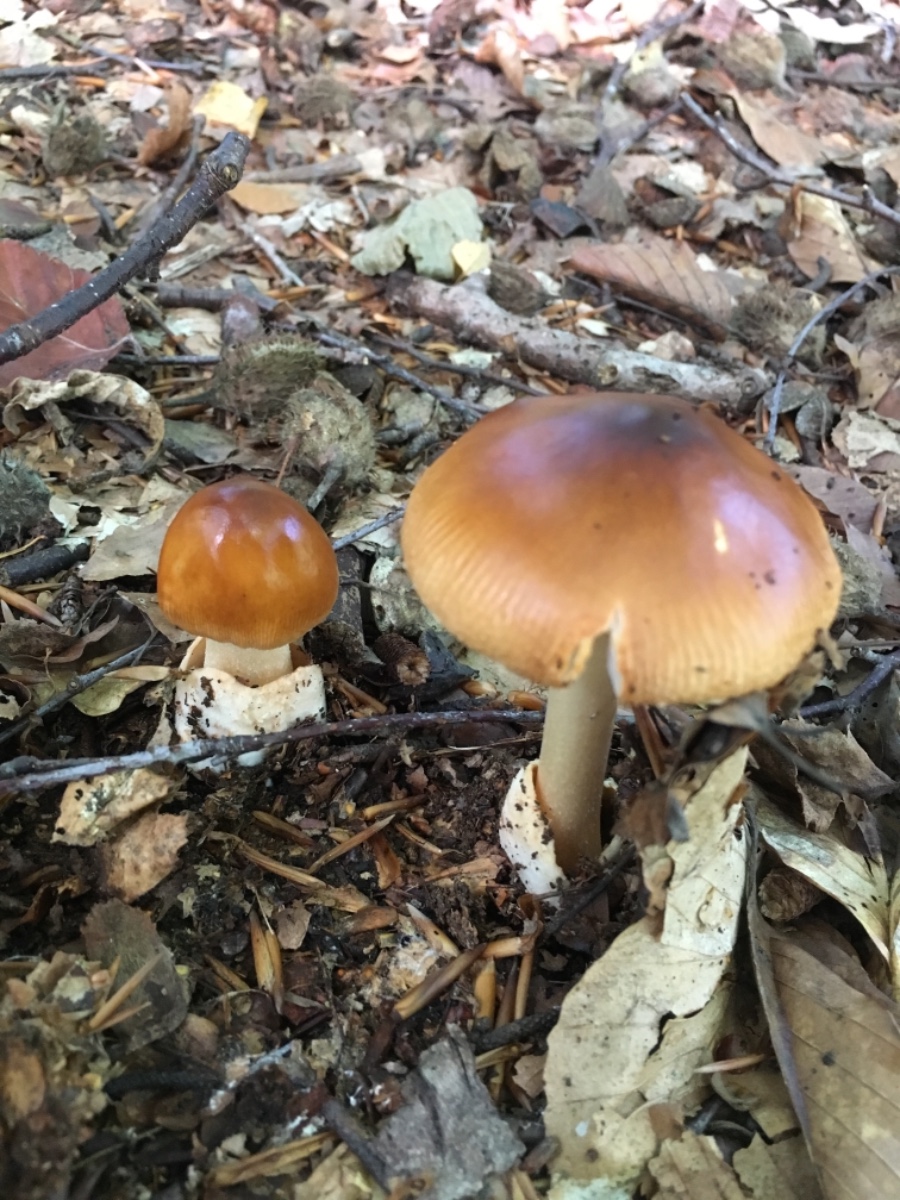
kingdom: Fungi
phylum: Basidiomycota
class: Agaricomycetes
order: Agaricales
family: Amanitaceae
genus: Amanita
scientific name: Amanita fulva
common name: brun kam-fluesvamp
